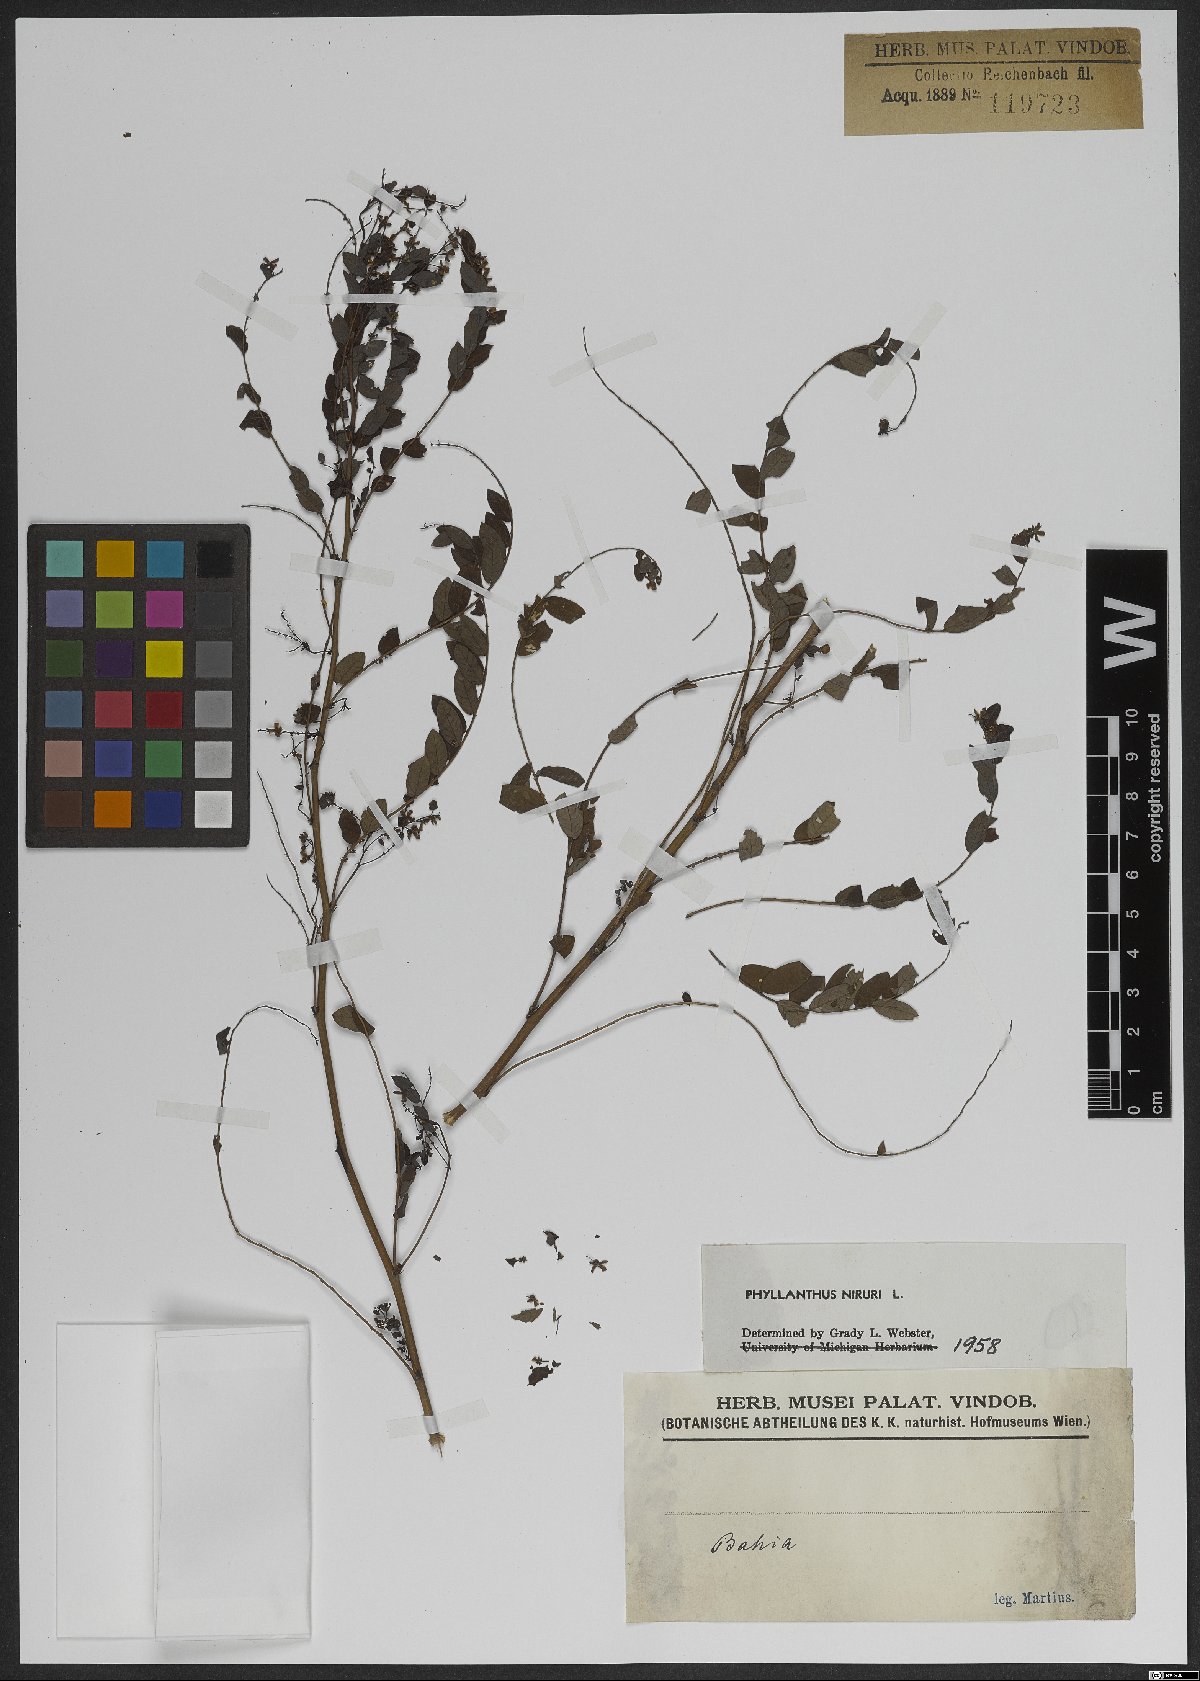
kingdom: Plantae
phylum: Tracheophyta
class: Magnoliopsida
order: Malpighiales
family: Phyllanthaceae
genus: Phyllanthus
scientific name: Phyllanthus niruri
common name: Niruri
